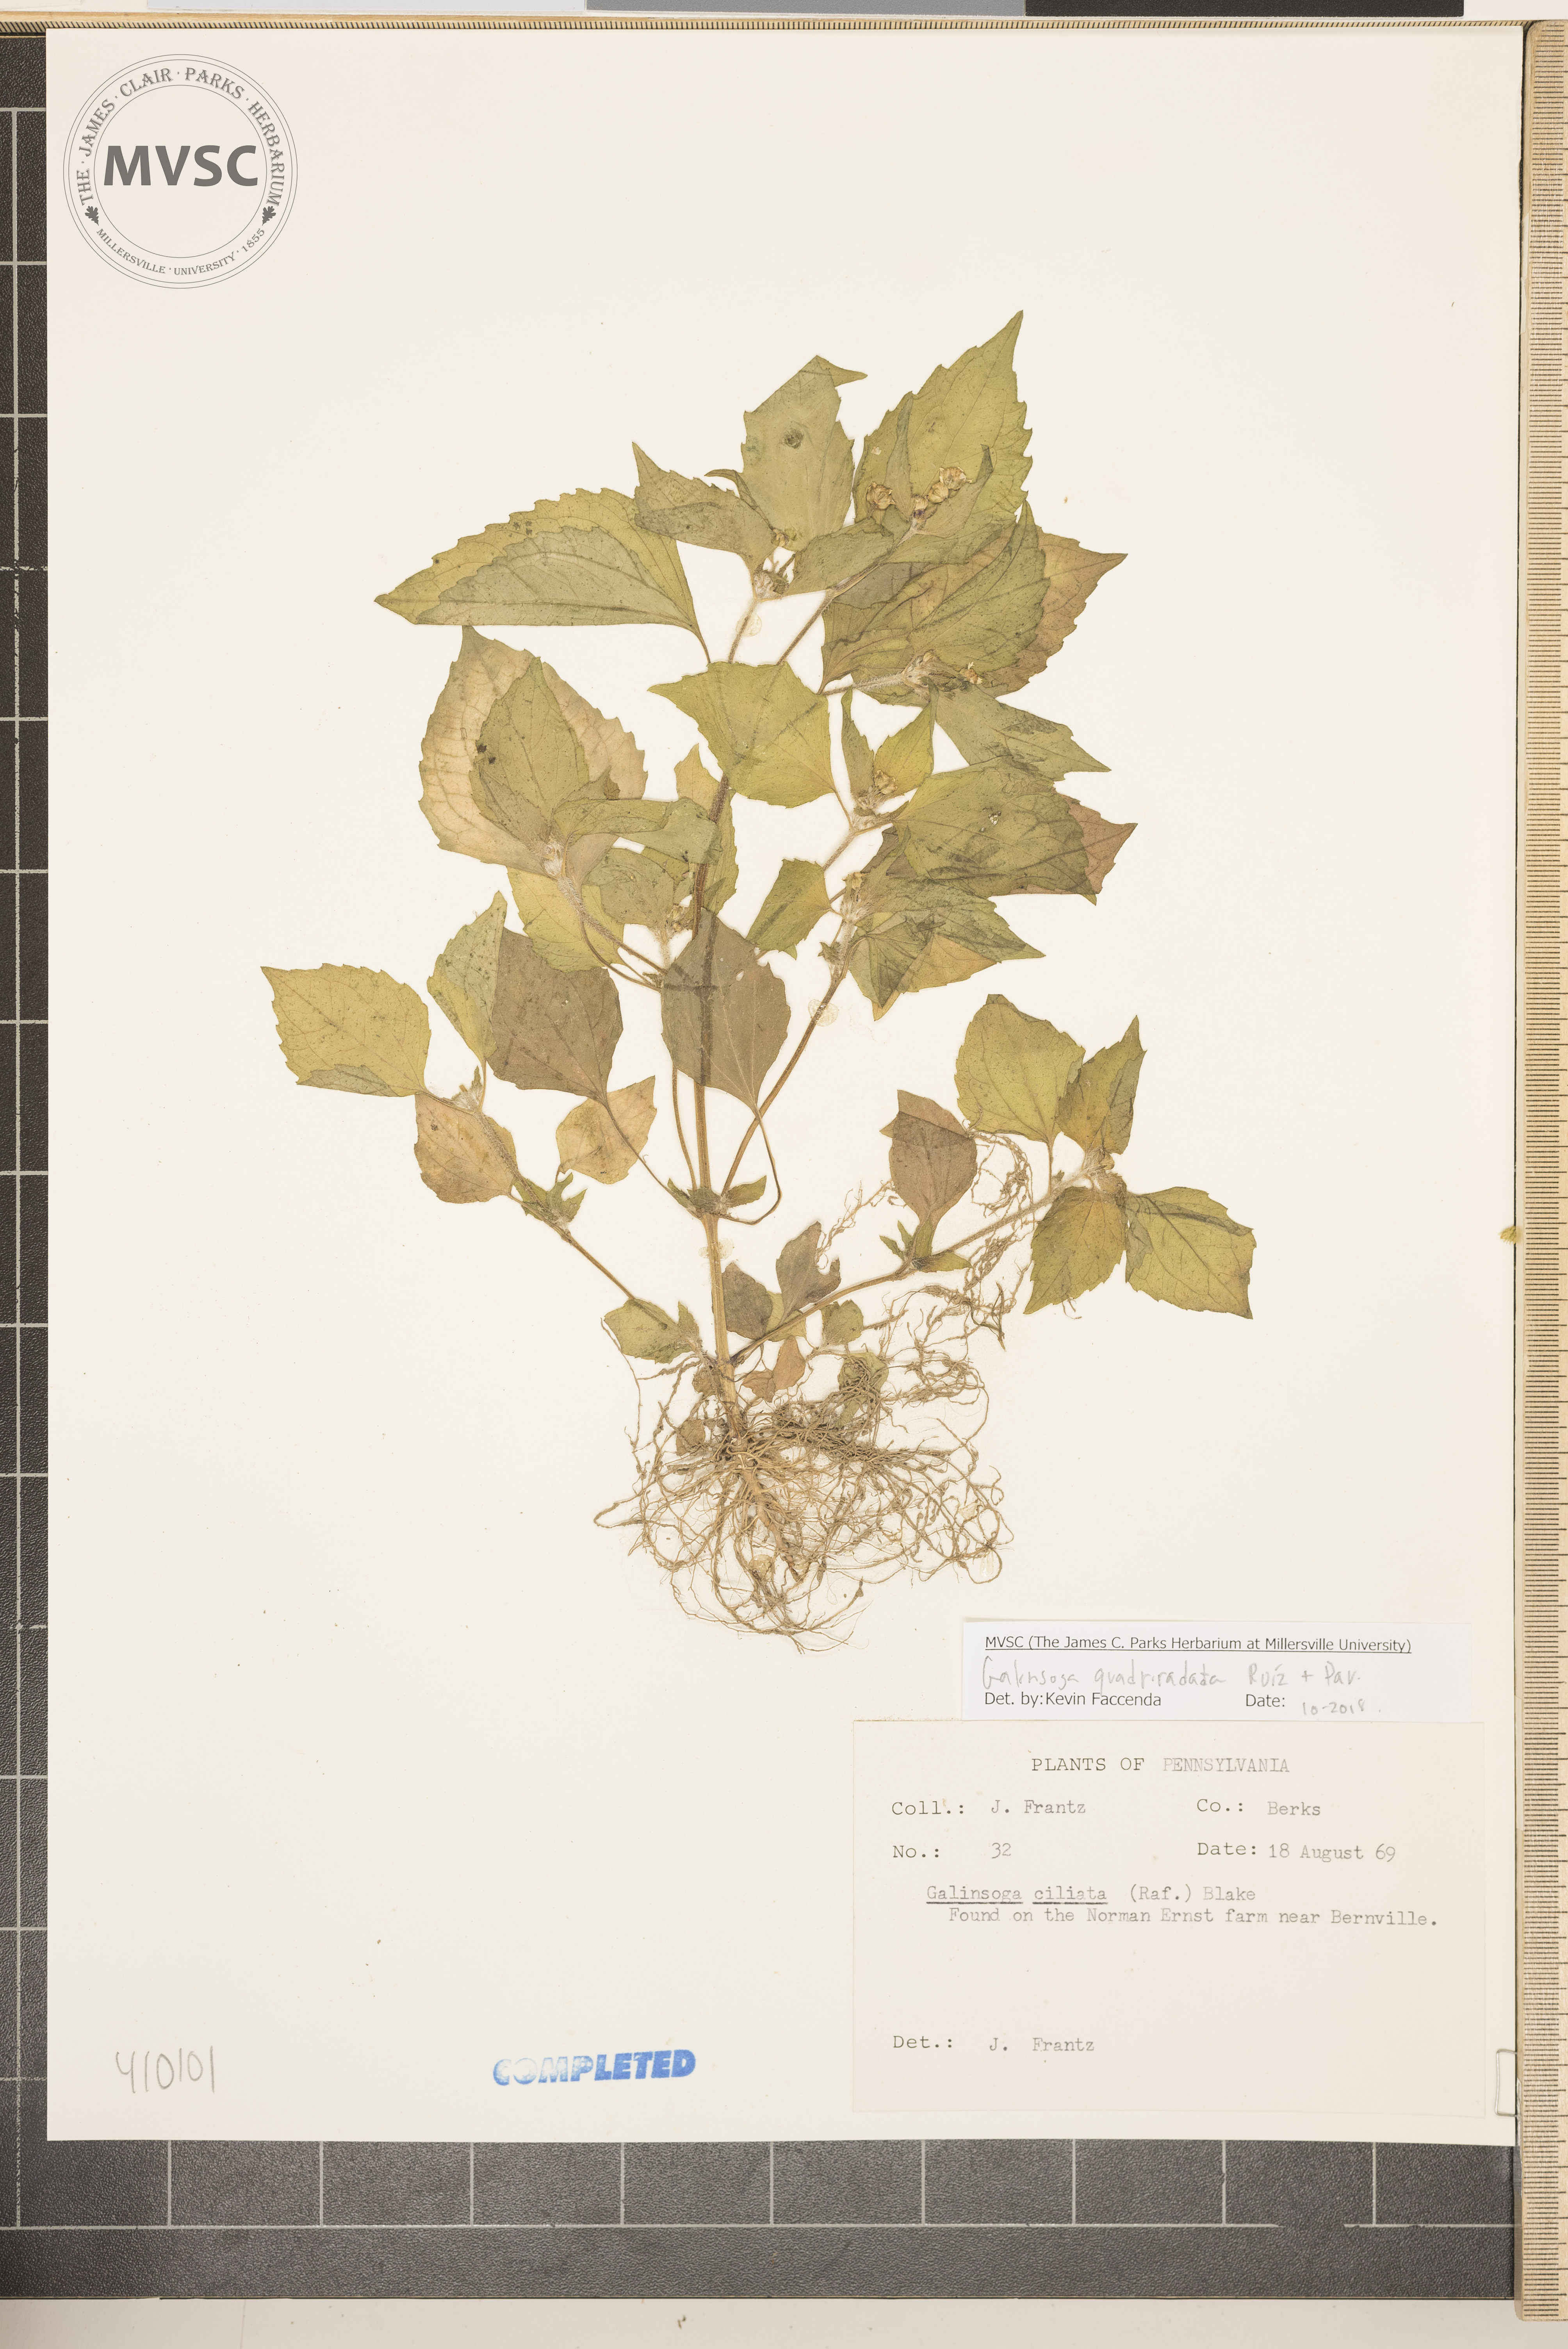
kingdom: Plantae
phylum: Tracheophyta
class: Magnoliopsida
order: Asterales
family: Asteraceae
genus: Galinsoga
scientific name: Galinsoga quadriradiata
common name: Shaggy soldier
